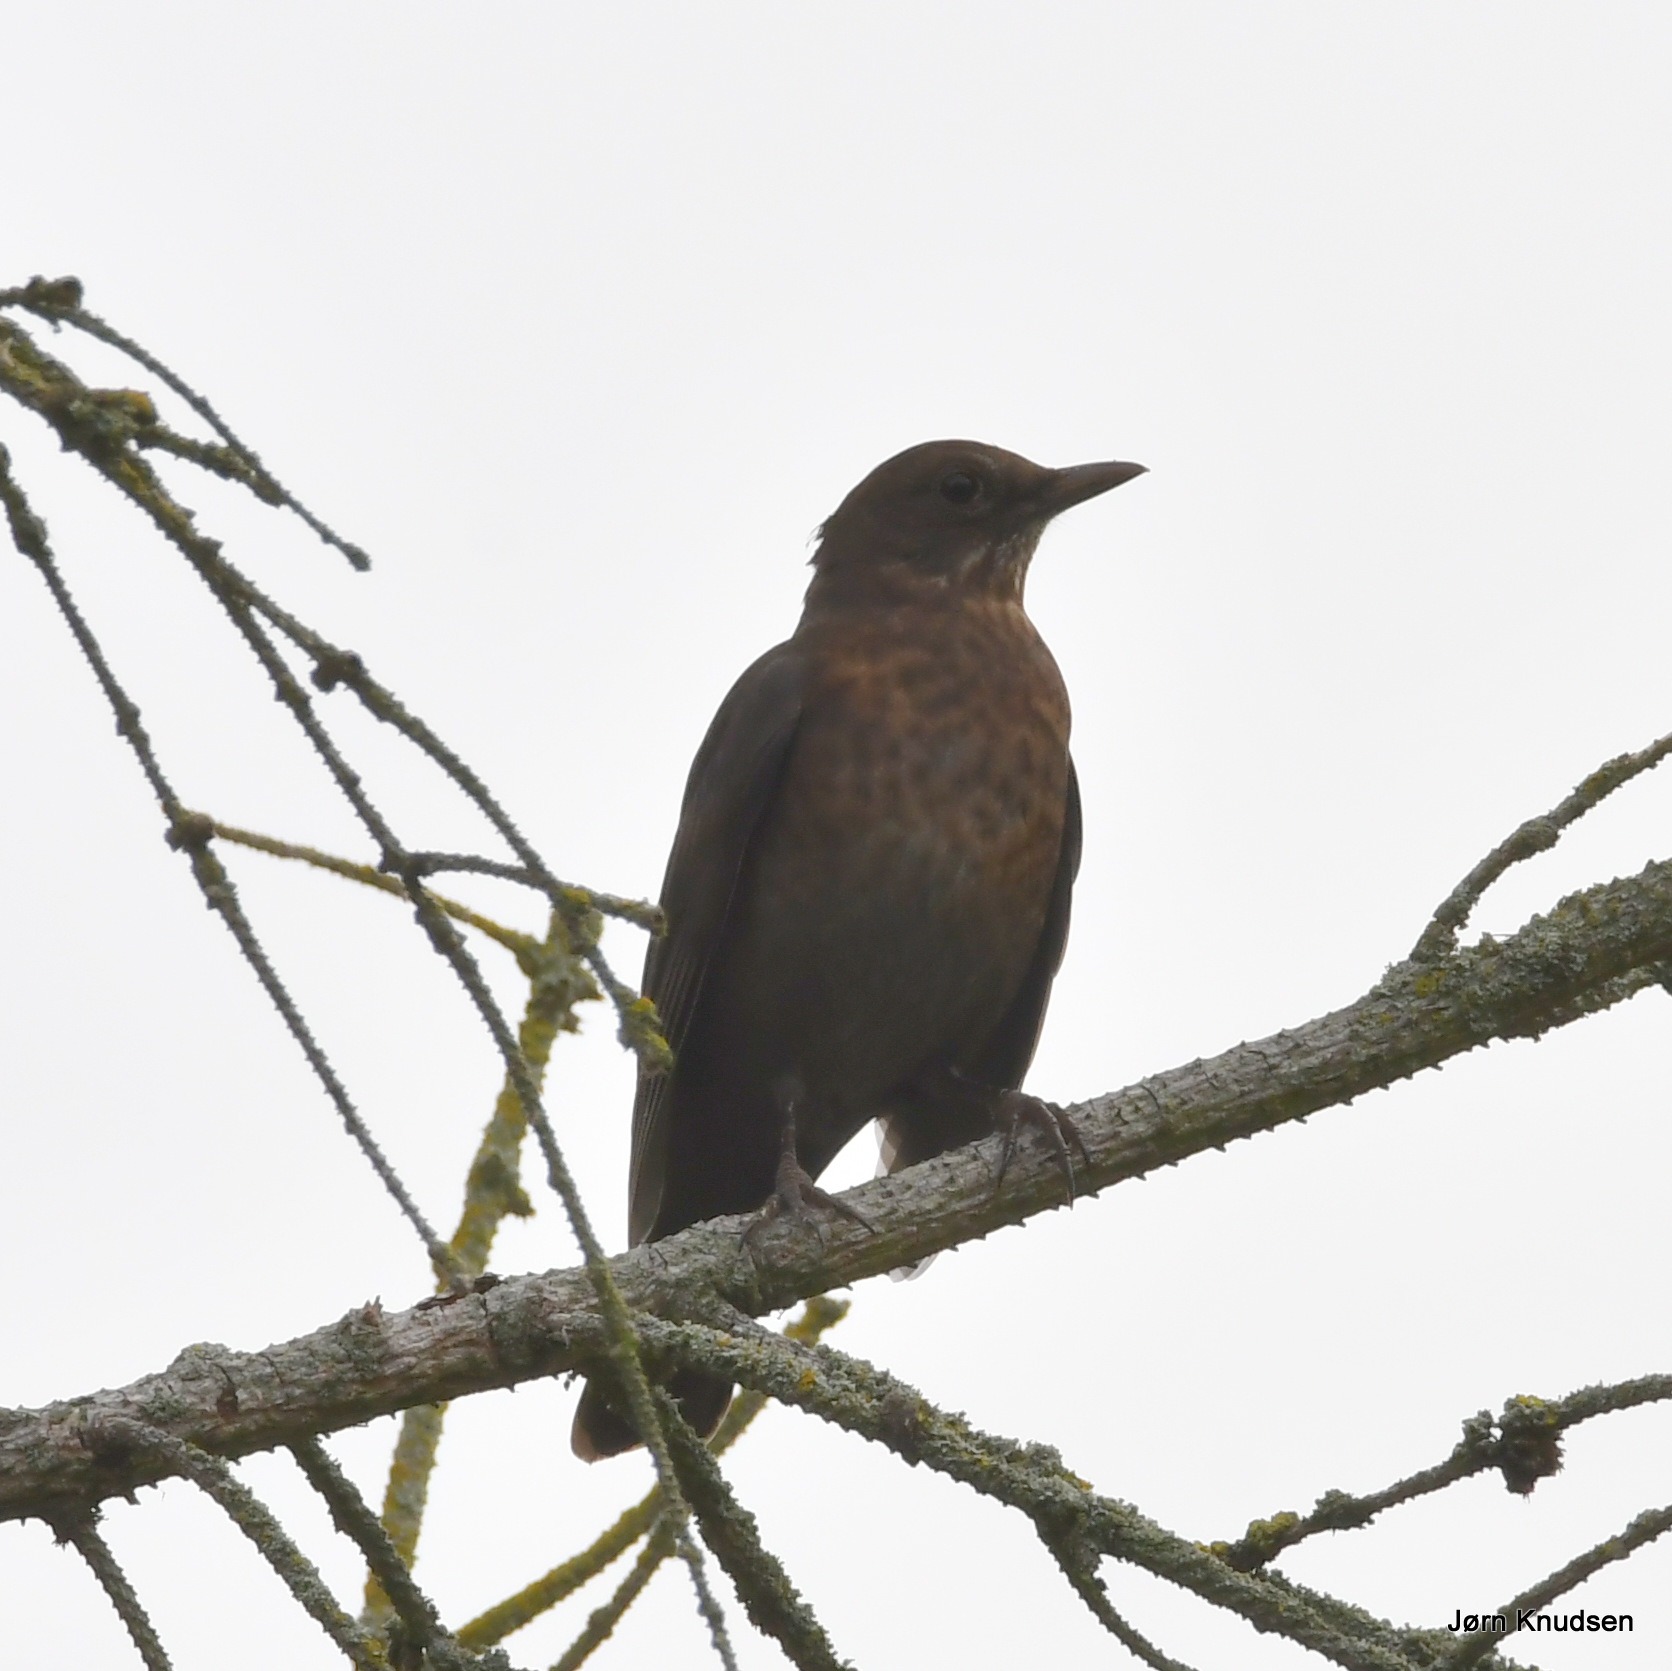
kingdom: Animalia
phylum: Chordata
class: Aves
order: Passeriformes
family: Turdidae
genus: Turdus
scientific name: Turdus merula
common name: Solsort
